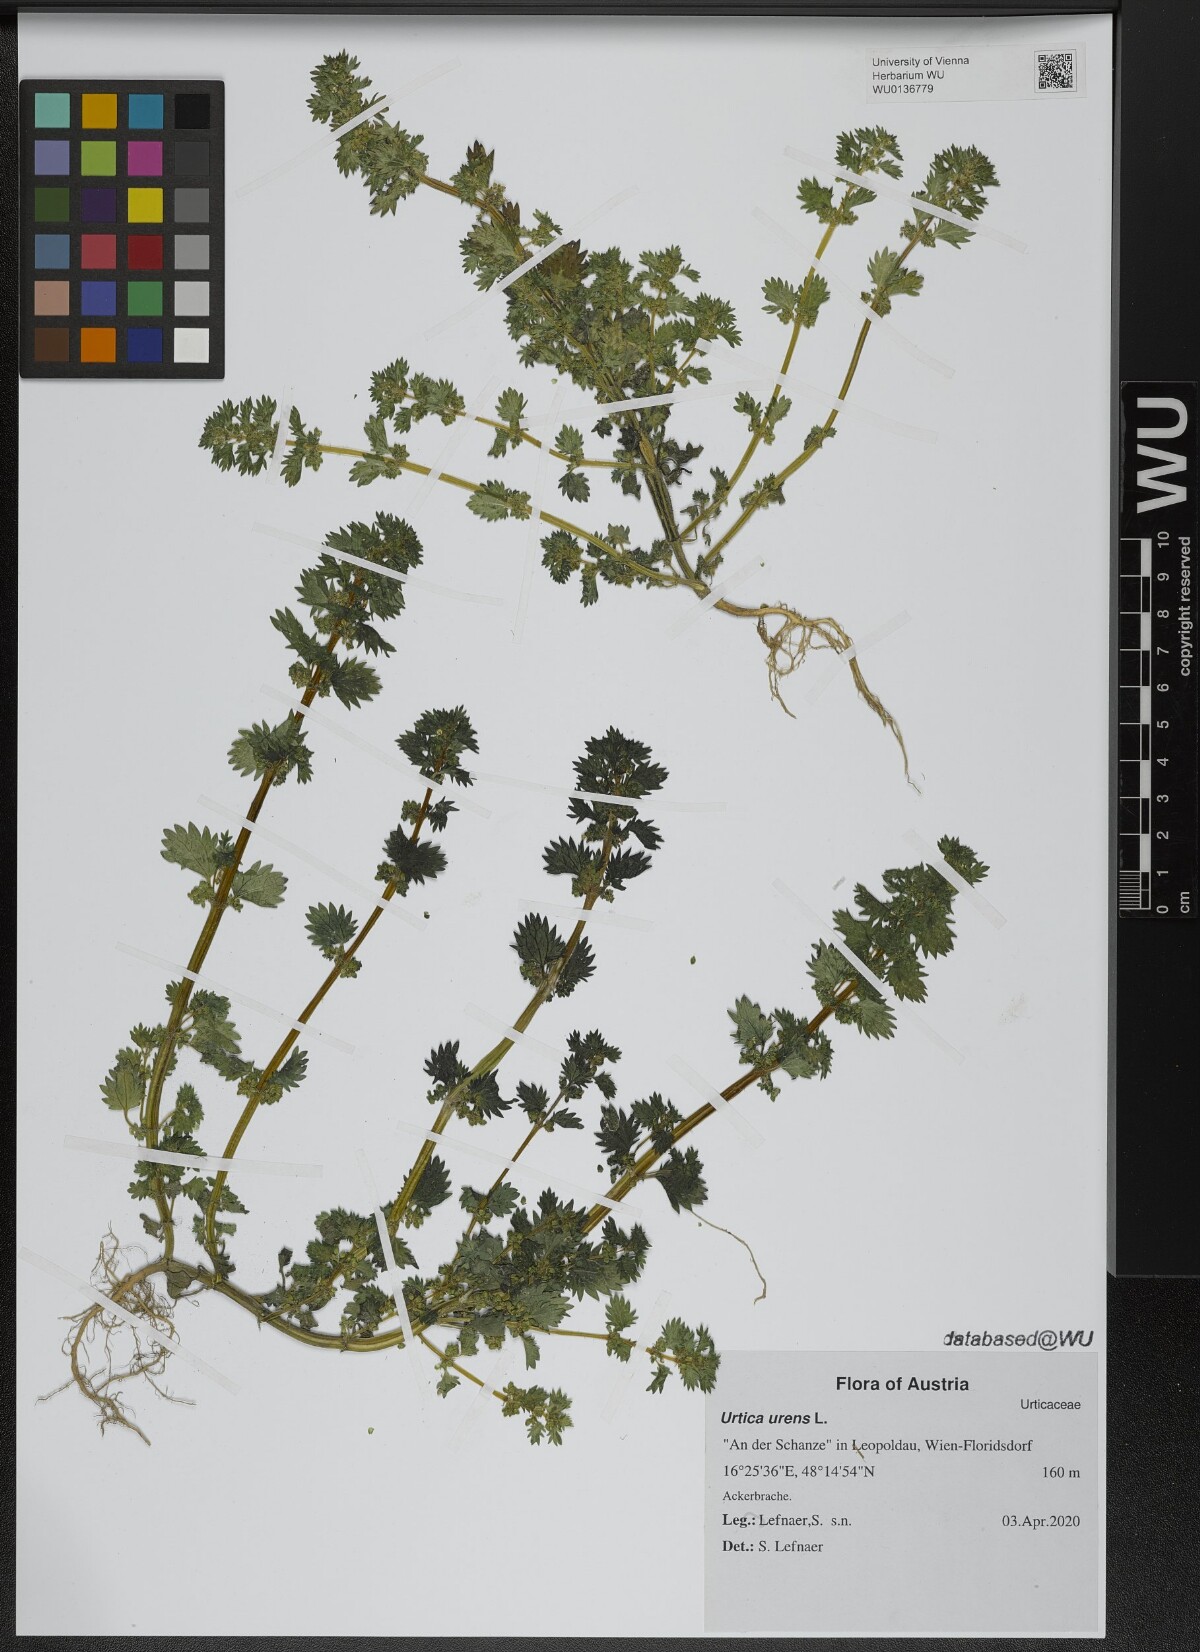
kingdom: Plantae
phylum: Tracheophyta
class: Magnoliopsida
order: Rosales
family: Urticaceae
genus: Urtica
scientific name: Urtica urens
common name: Dwarf nettle
